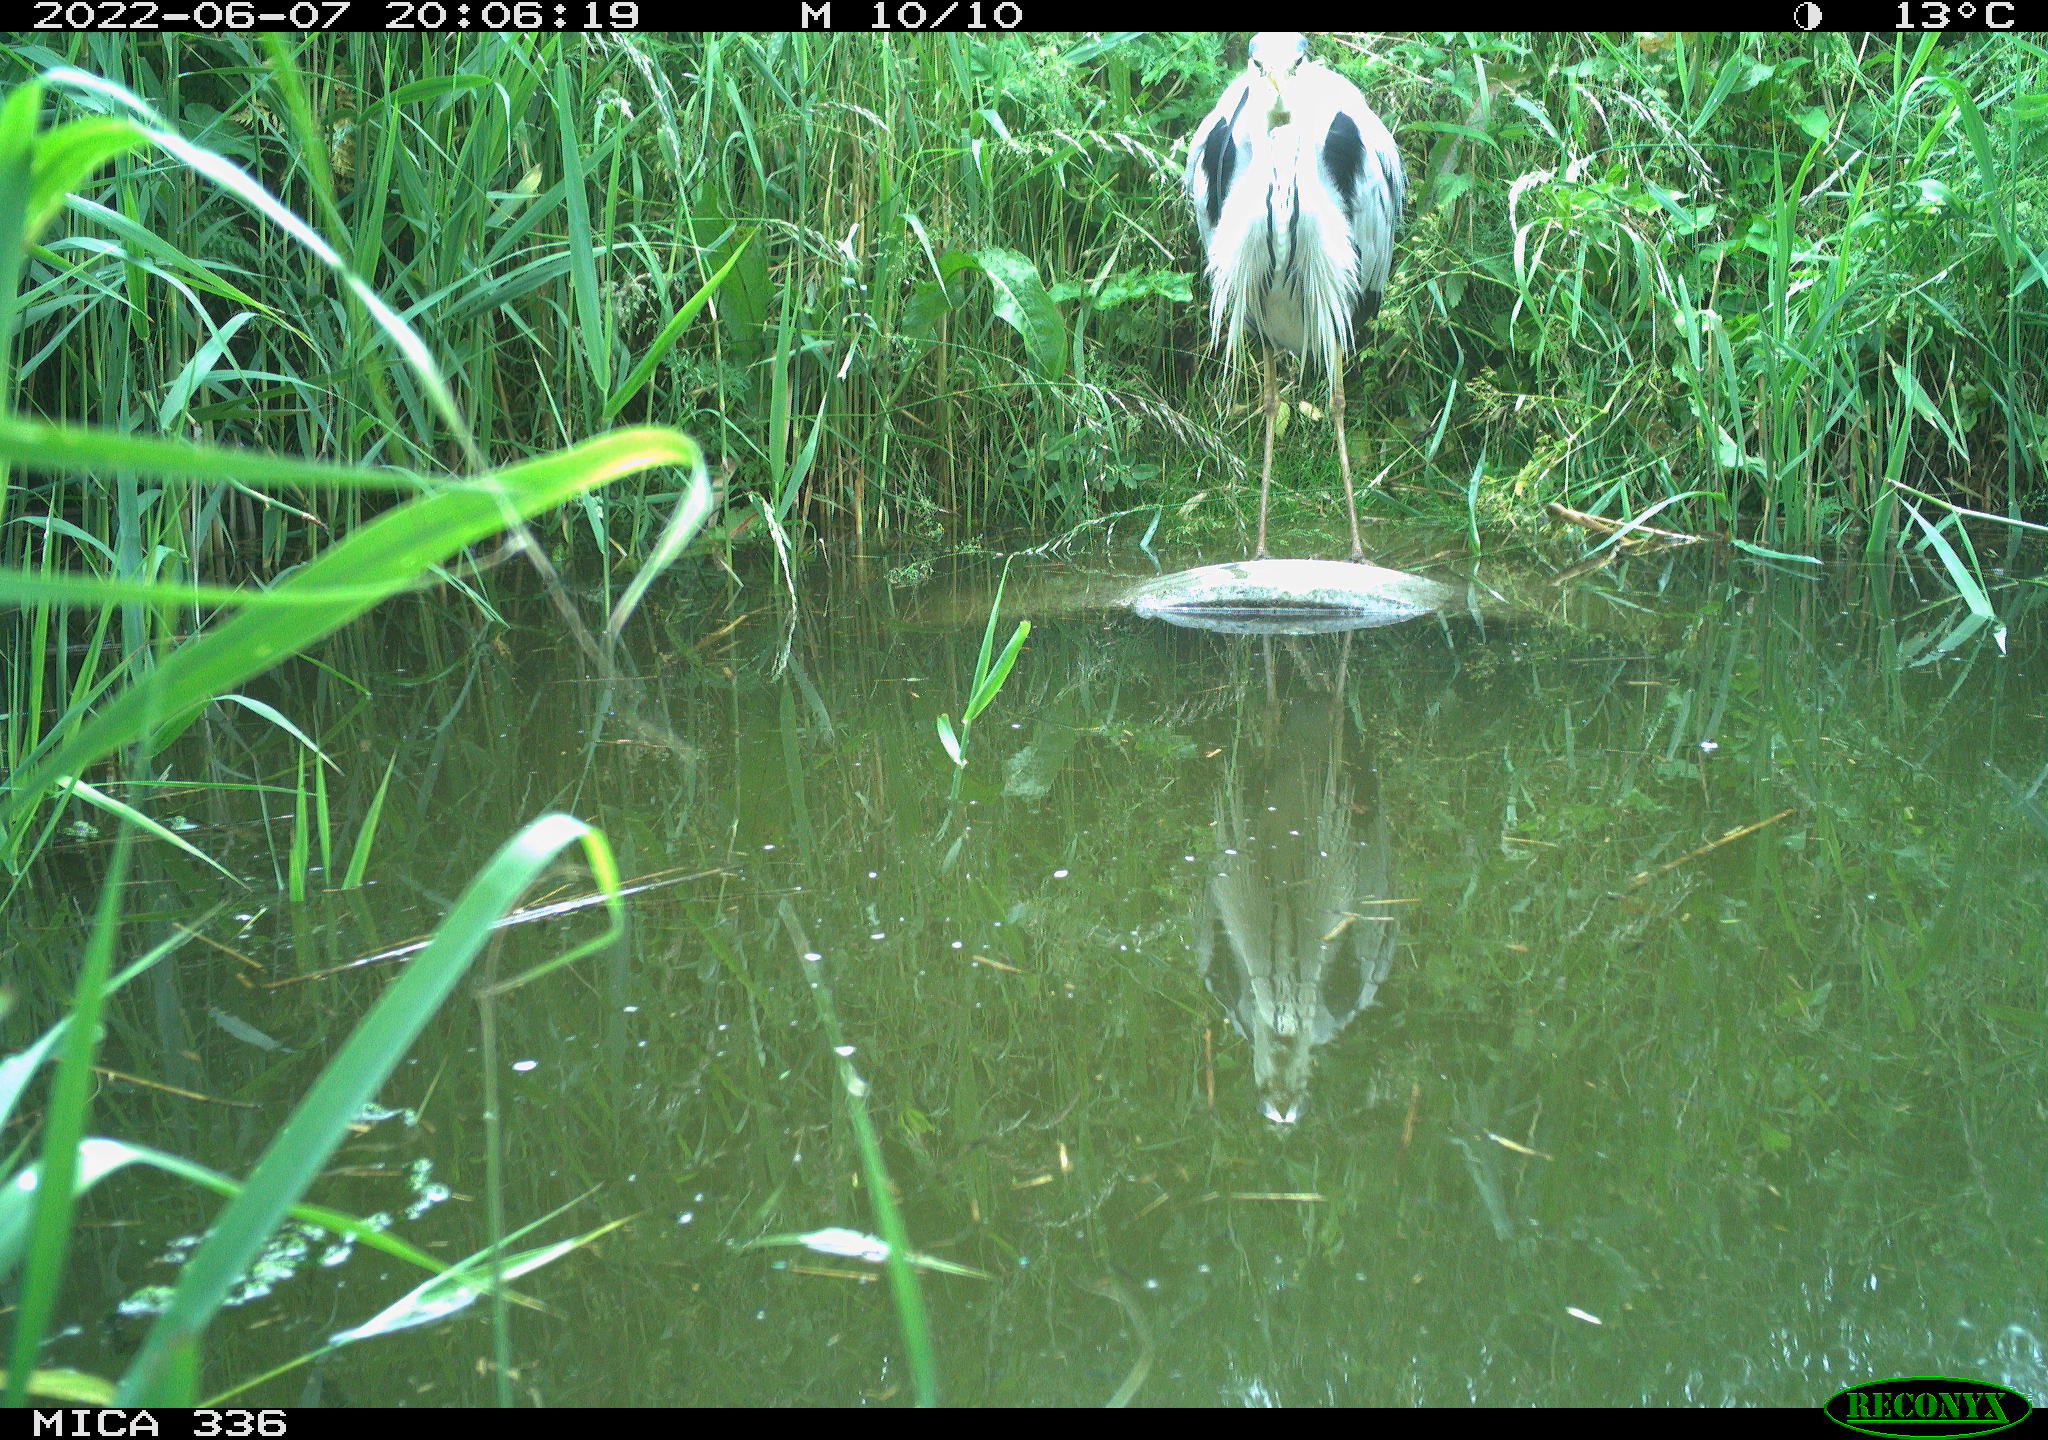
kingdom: Animalia
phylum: Chordata
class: Aves
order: Pelecaniformes
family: Ardeidae
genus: Ardea
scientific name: Ardea
